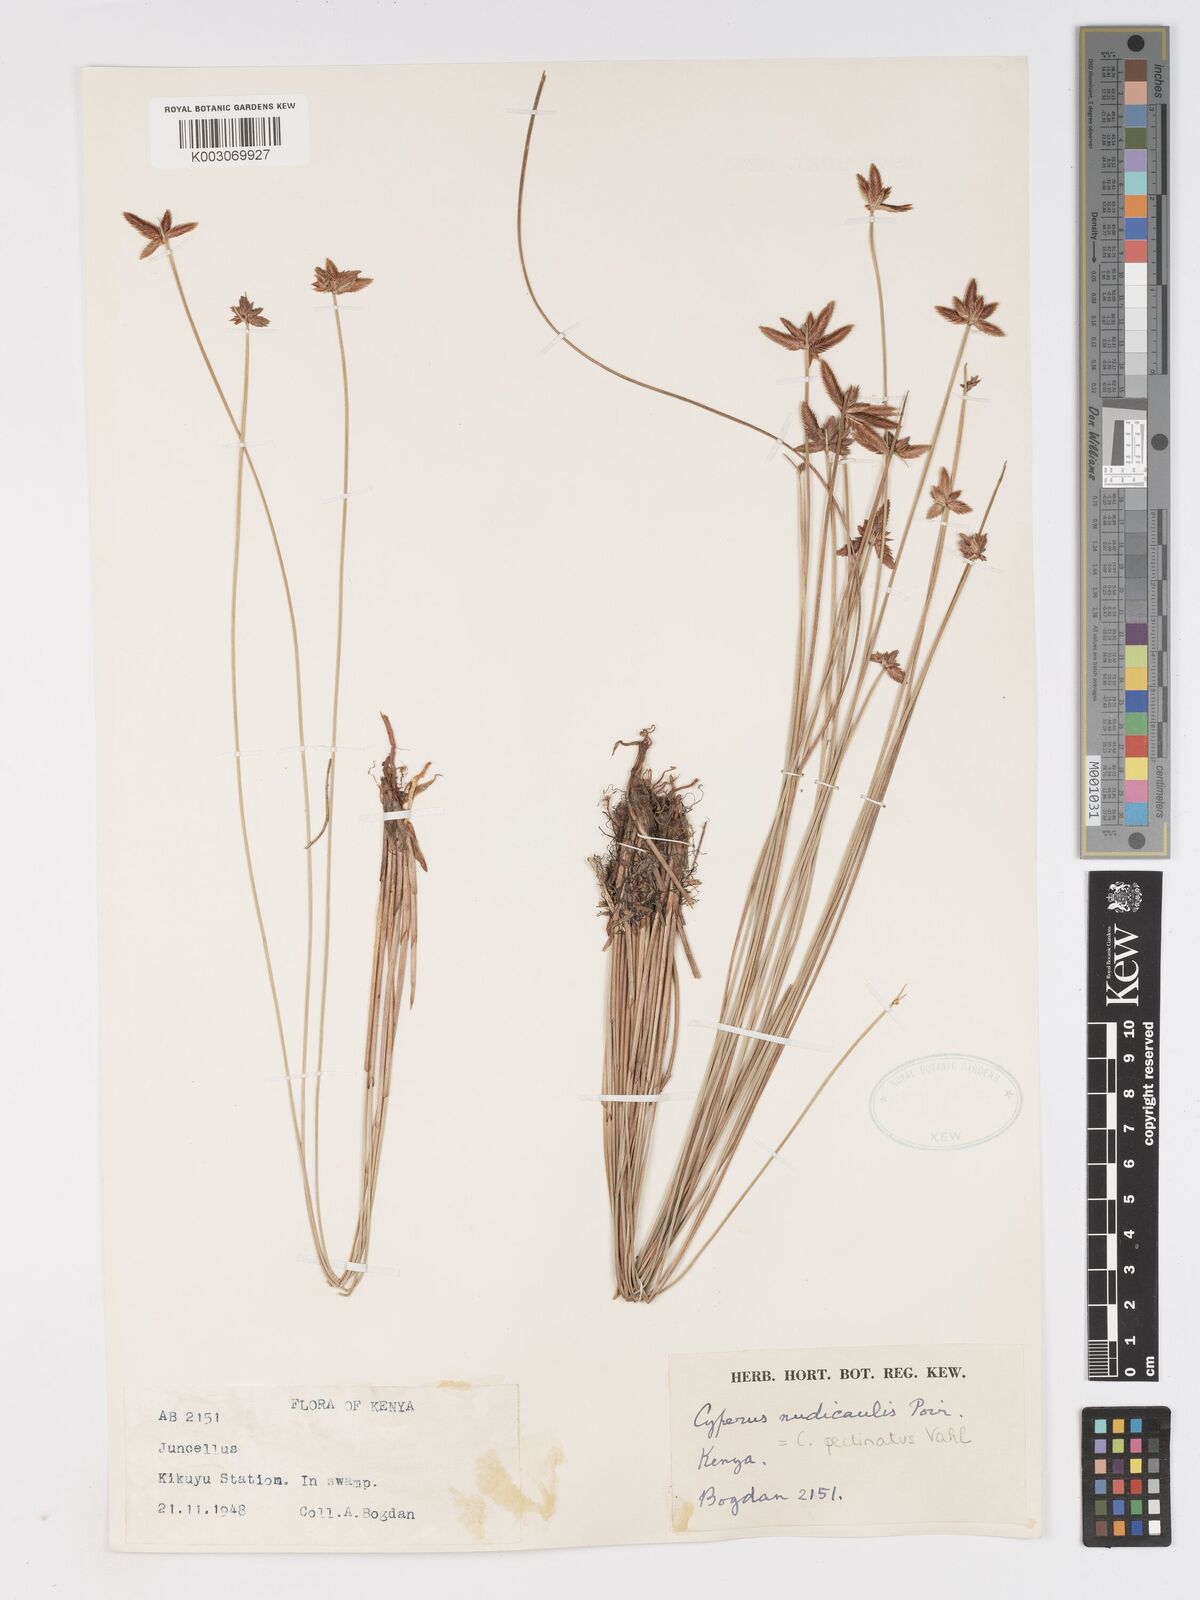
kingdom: Plantae
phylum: Tracheophyta
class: Liliopsida
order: Poales
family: Cyperaceae
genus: Cyperus
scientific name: Cyperus pectinatus
